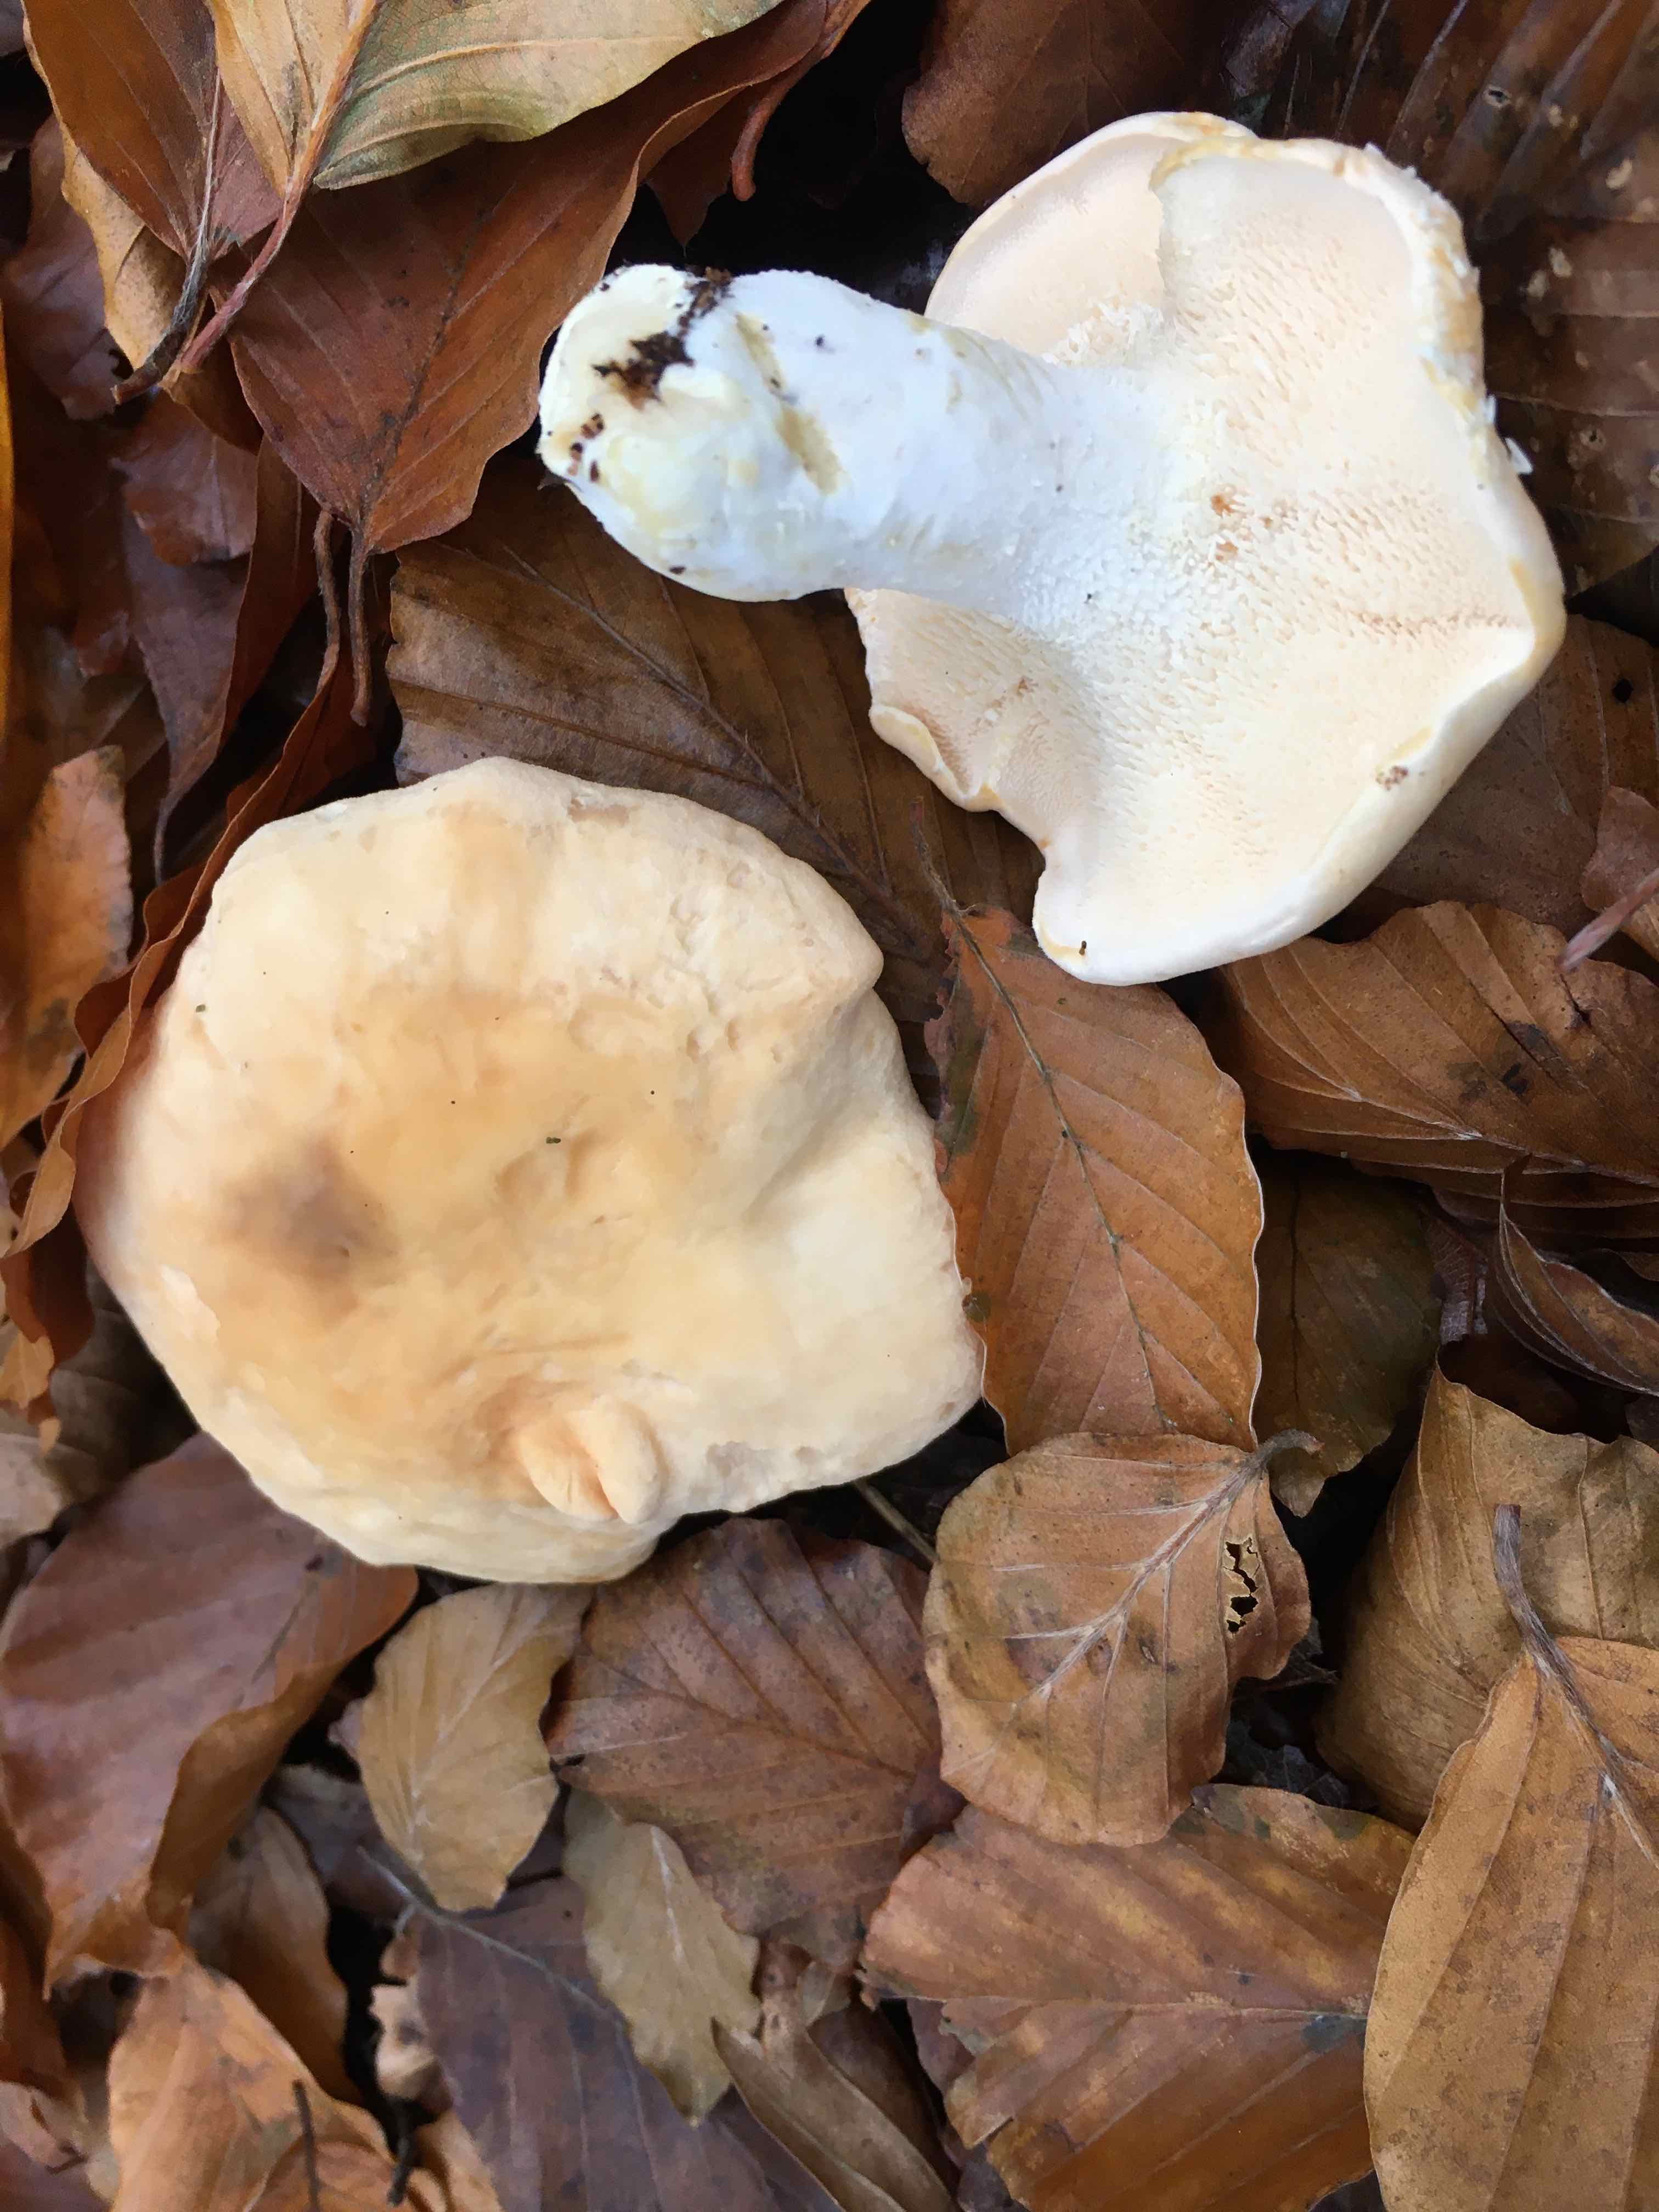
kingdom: Fungi
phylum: Basidiomycota
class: Agaricomycetes
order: Cantharellales
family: Hydnaceae
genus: Hydnum
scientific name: Hydnum
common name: pigsvamp
